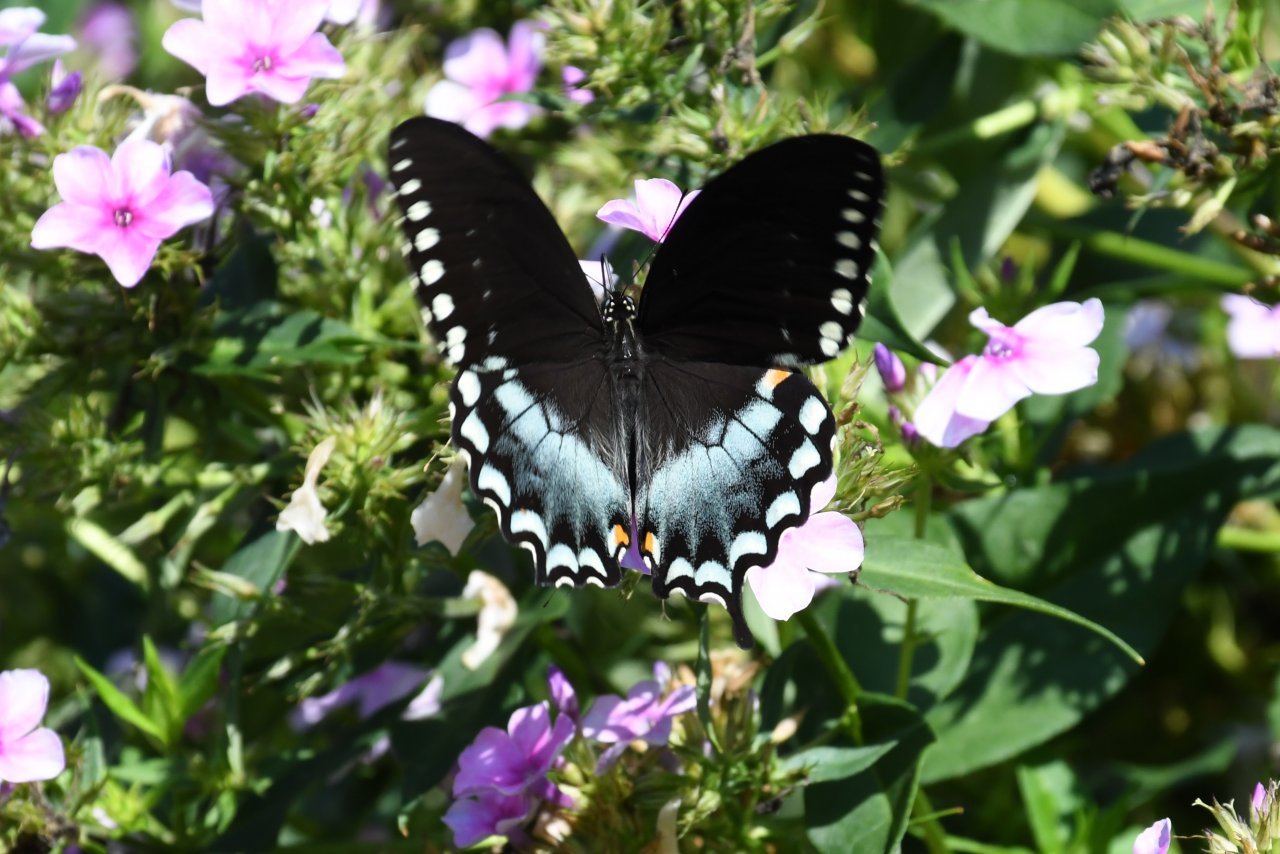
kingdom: Animalia
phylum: Arthropoda
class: Insecta
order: Lepidoptera
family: Papilionidae
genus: Pterourus
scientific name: Pterourus troilus
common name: Spicebush Swallowtail
